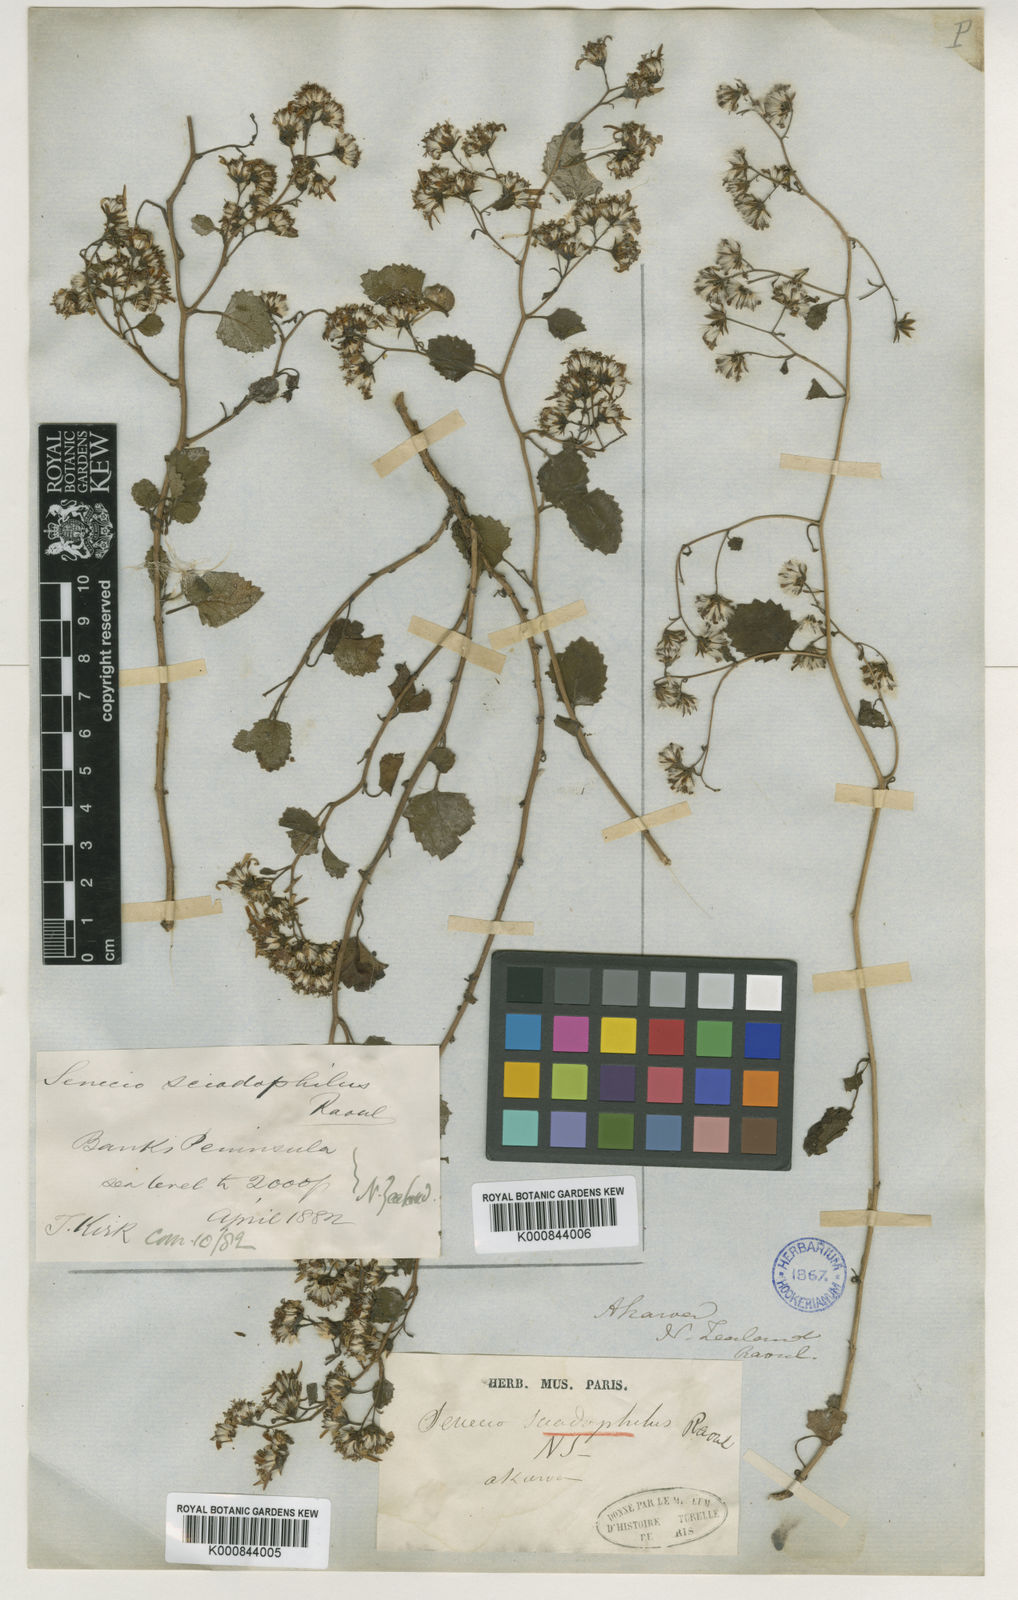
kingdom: Plantae
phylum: Tracheophyta
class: Magnoliopsida
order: Asterales
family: Asteraceae
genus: Brachyglottis
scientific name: Brachyglottis sciadophila
